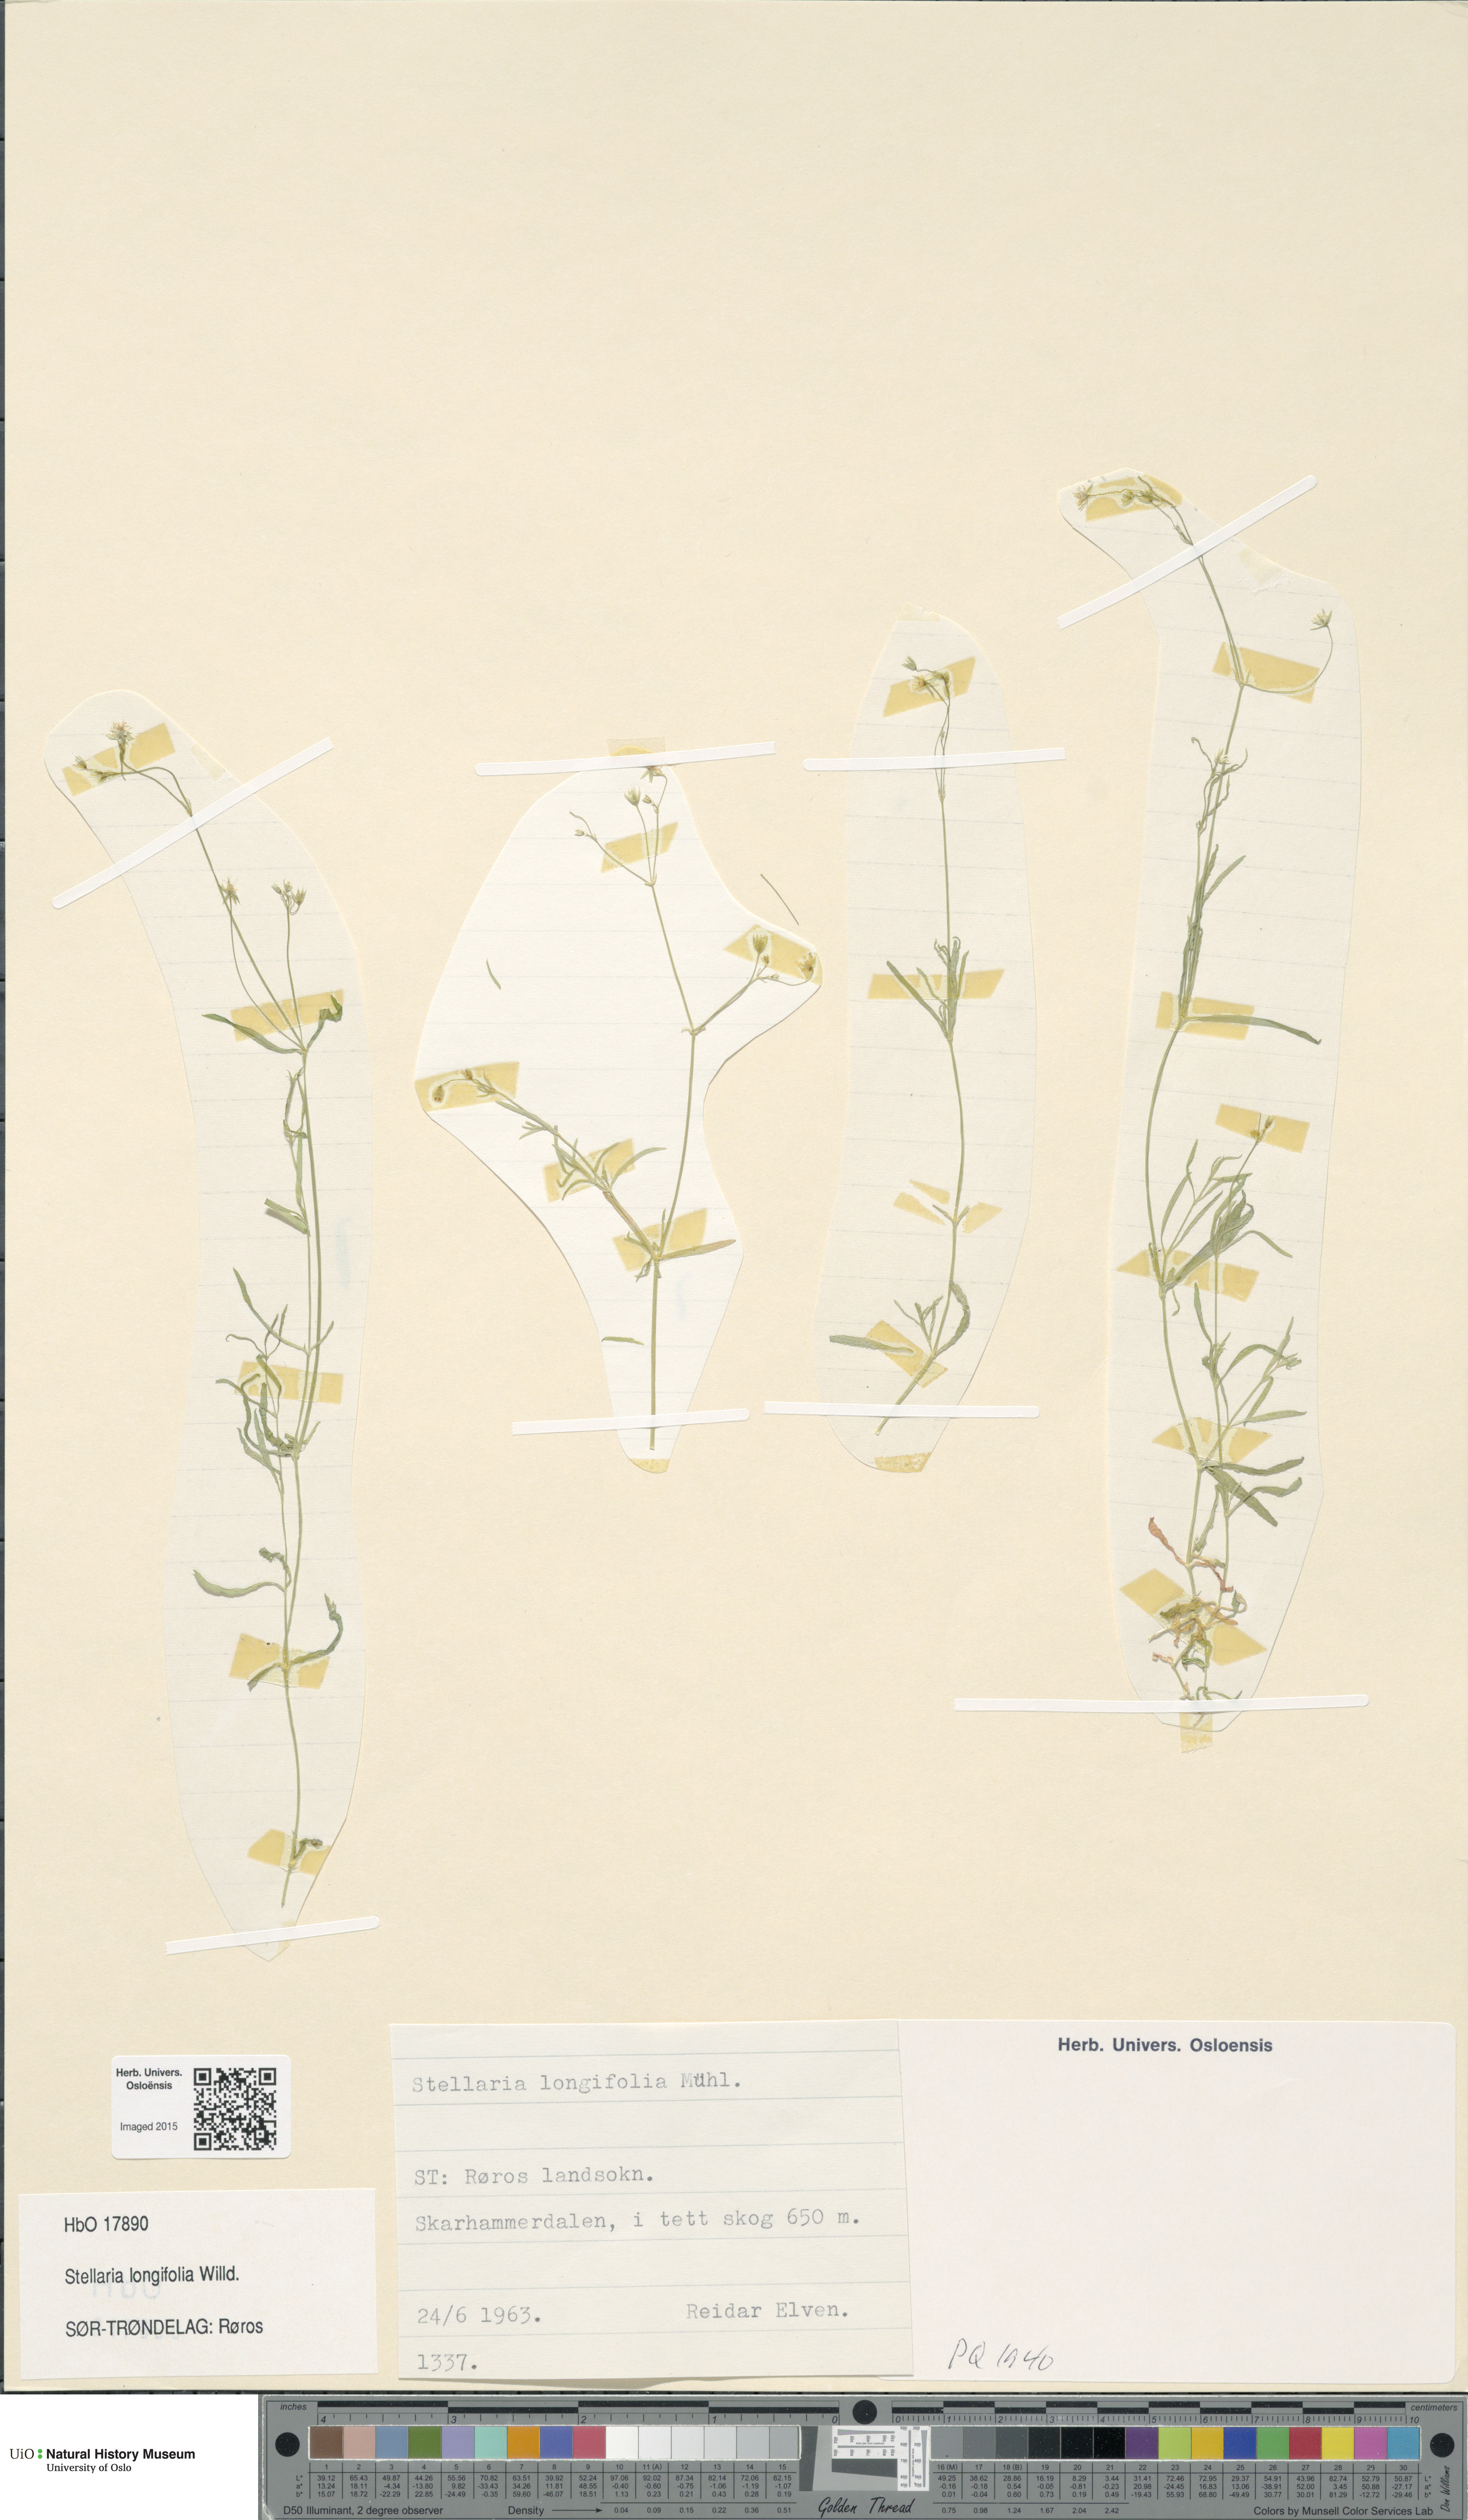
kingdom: Plantae
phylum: Tracheophyta
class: Magnoliopsida
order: Caryophyllales
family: Caryophyllaceae
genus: Stellaria
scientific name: Stellaria longifolia
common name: Long-leaved chickweed
